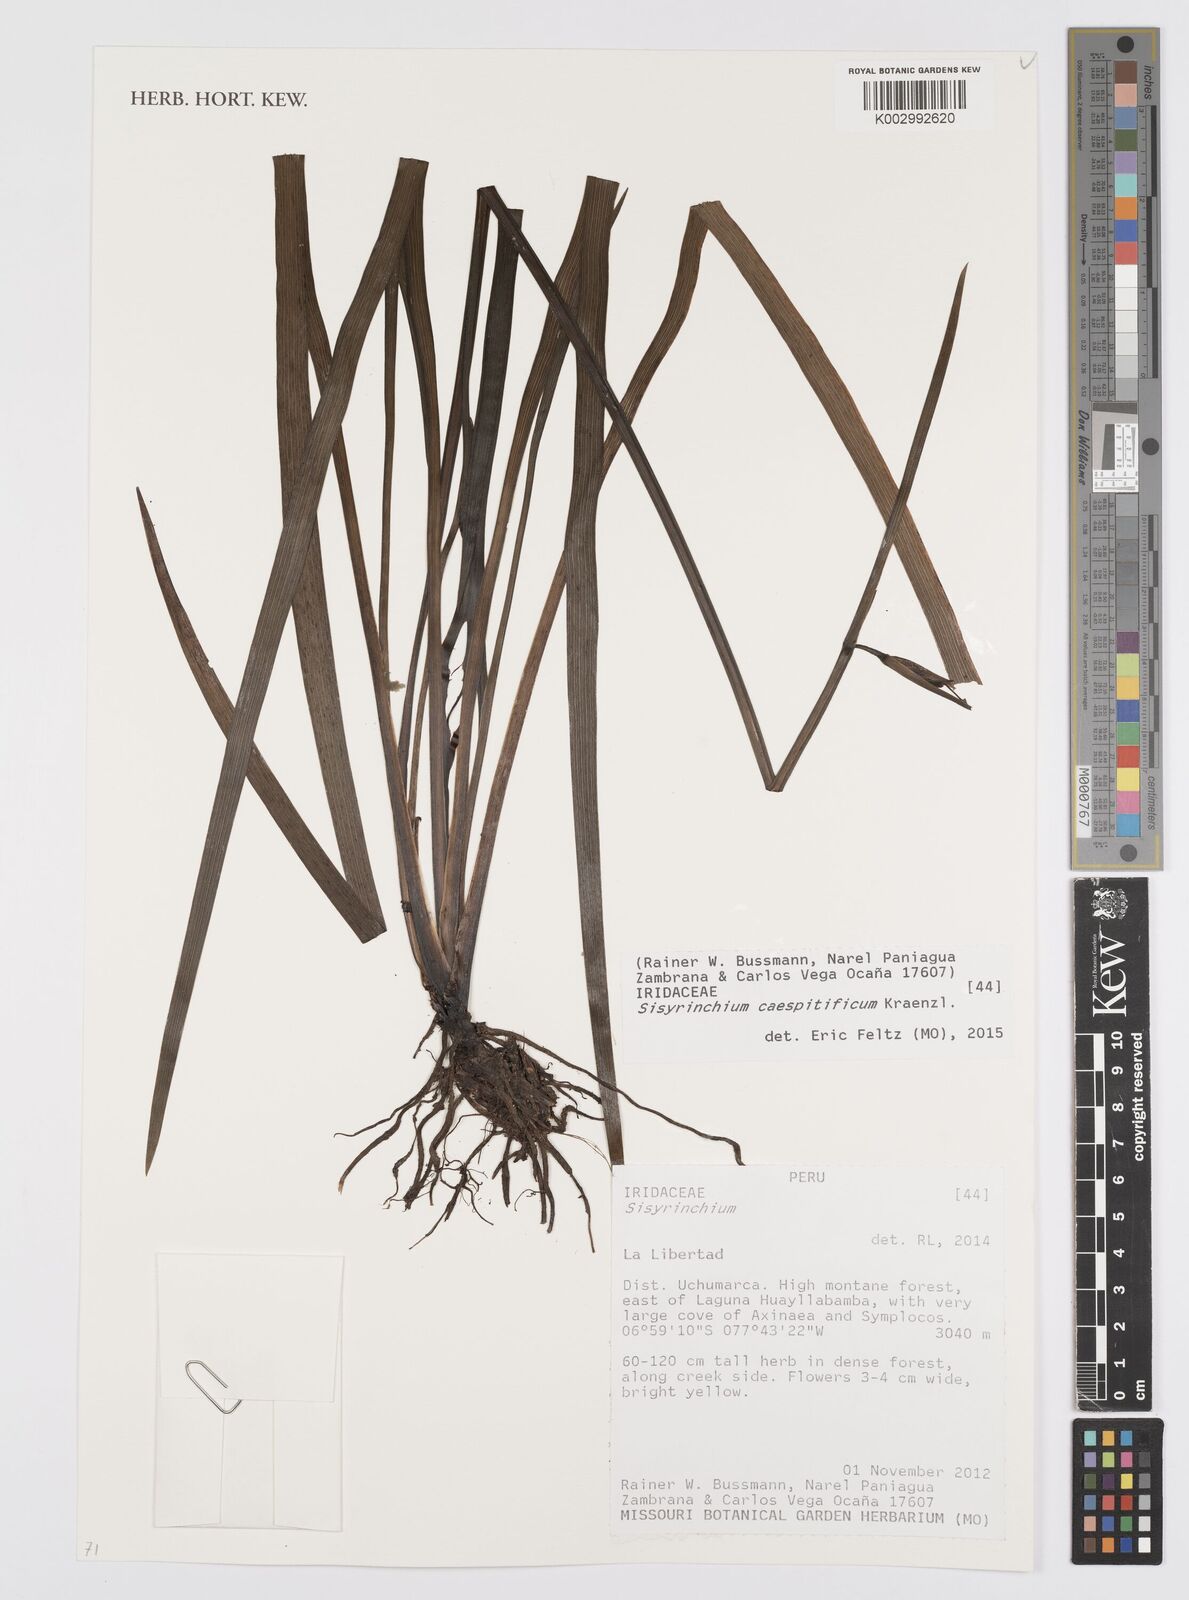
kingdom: Plantae
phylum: Tracheophyta
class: Liliopsida
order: Asparagales
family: Iridaceae
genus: Sisyrinchium
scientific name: Sisyrinchium caespitificum
